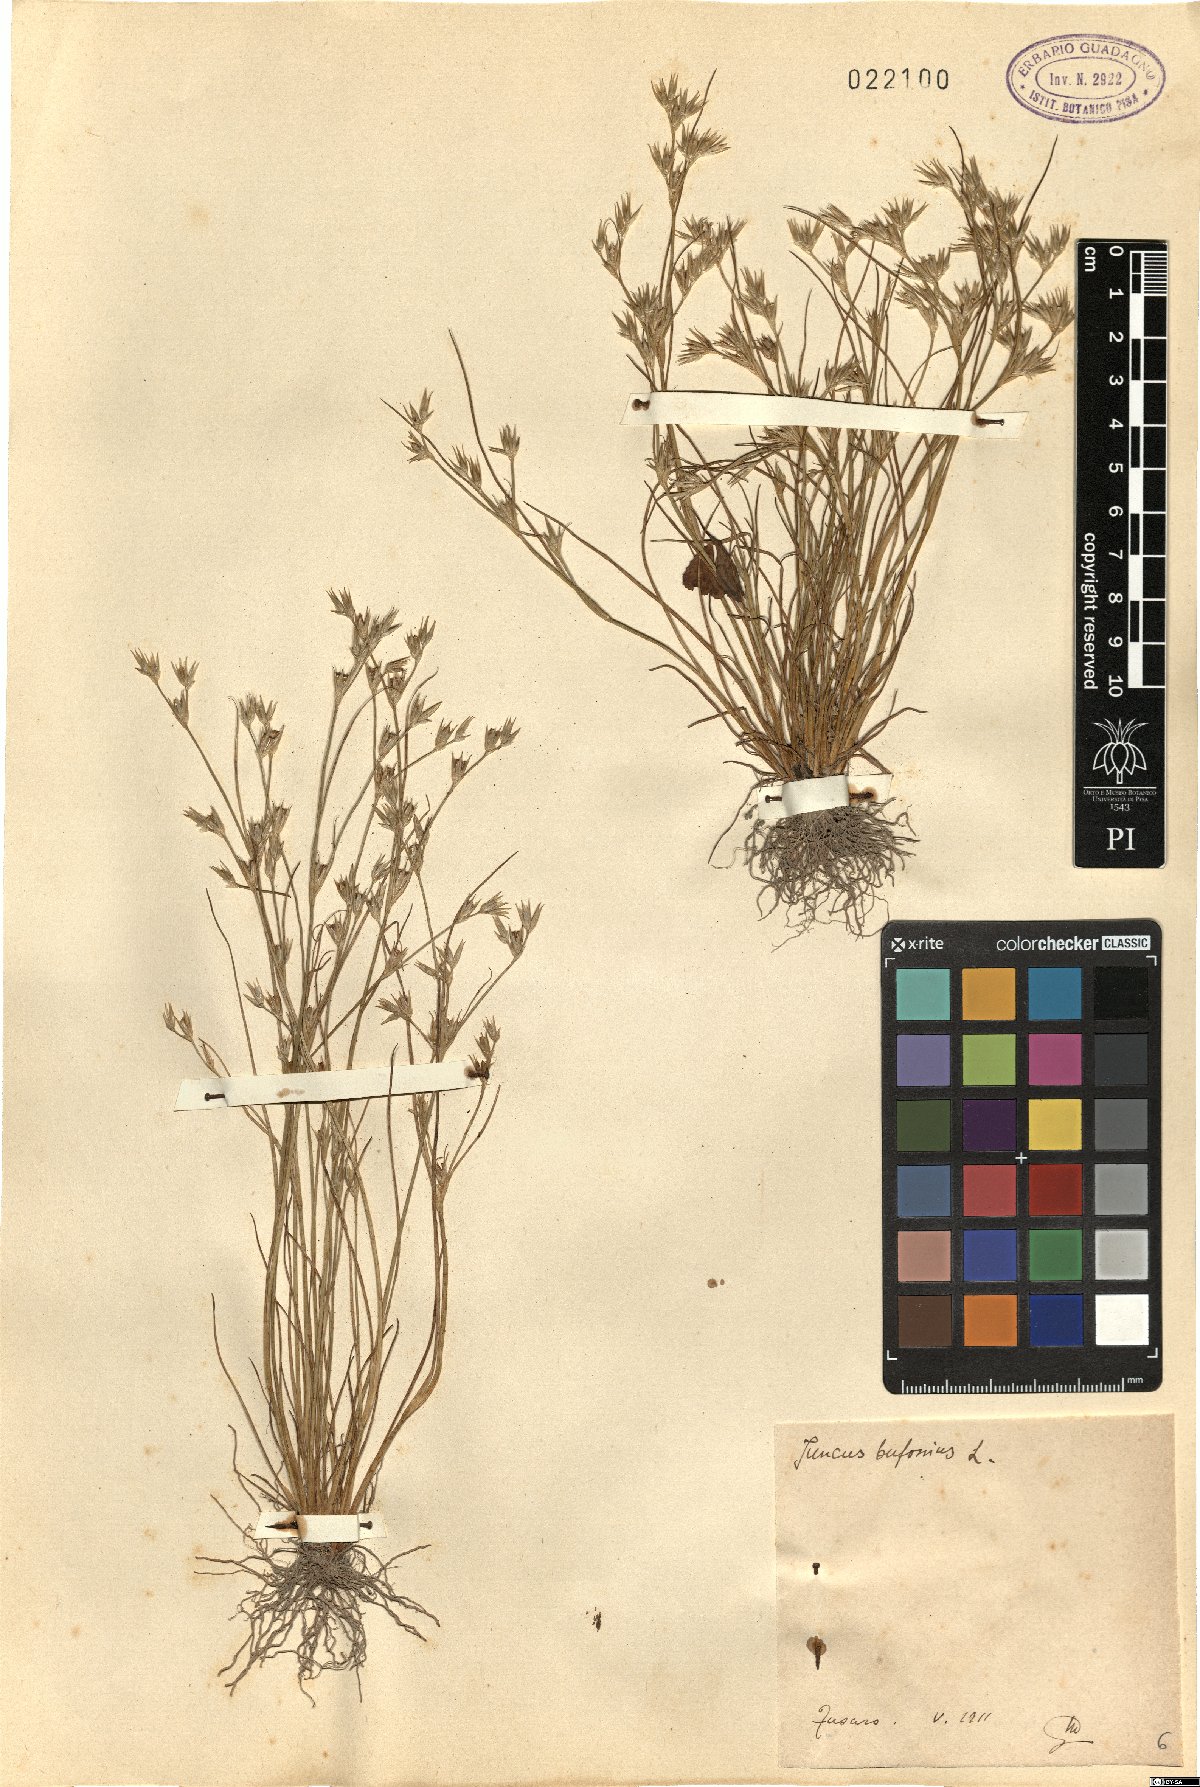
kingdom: Plantae
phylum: Tracheophyta
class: Liliopsida
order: Poales
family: Juncaceae
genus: Juncus
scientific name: Juncus bufonius
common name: Toad rush
